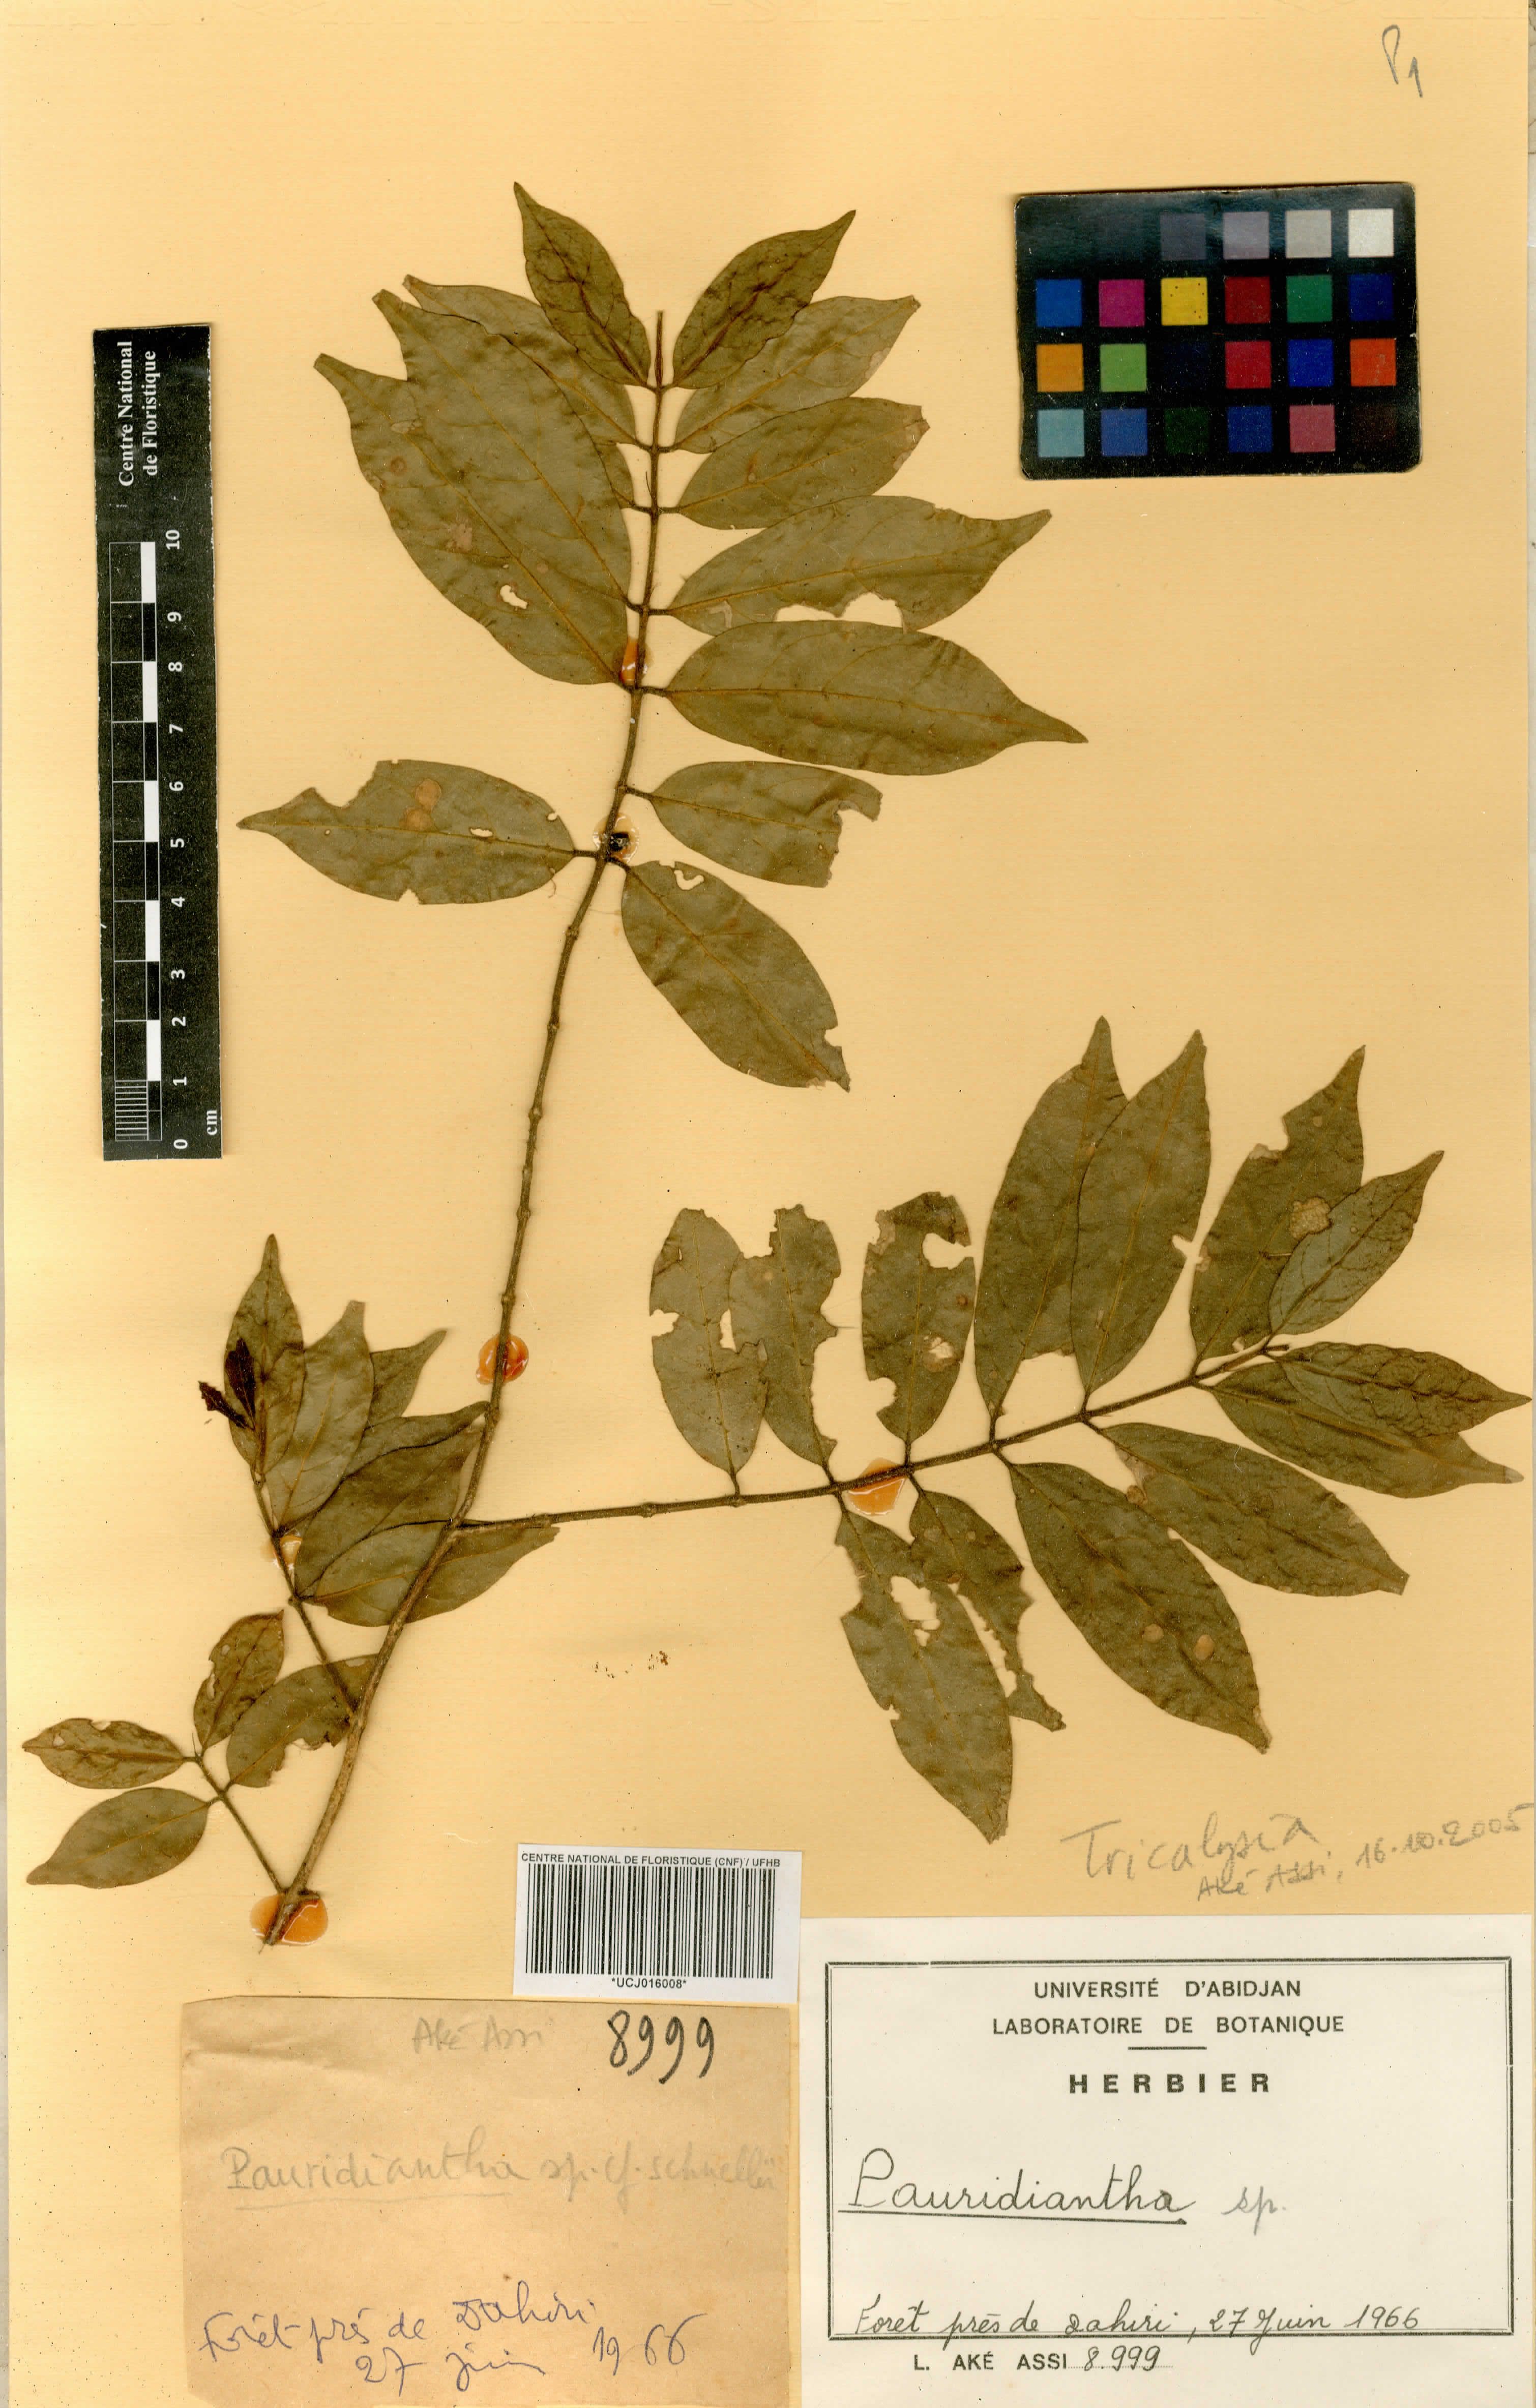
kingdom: Plantae
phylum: Tracheophyta
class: Magnoliopsida
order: Gentianales
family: Rubiaceae
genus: Tricalysia
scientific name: Tricalysia
